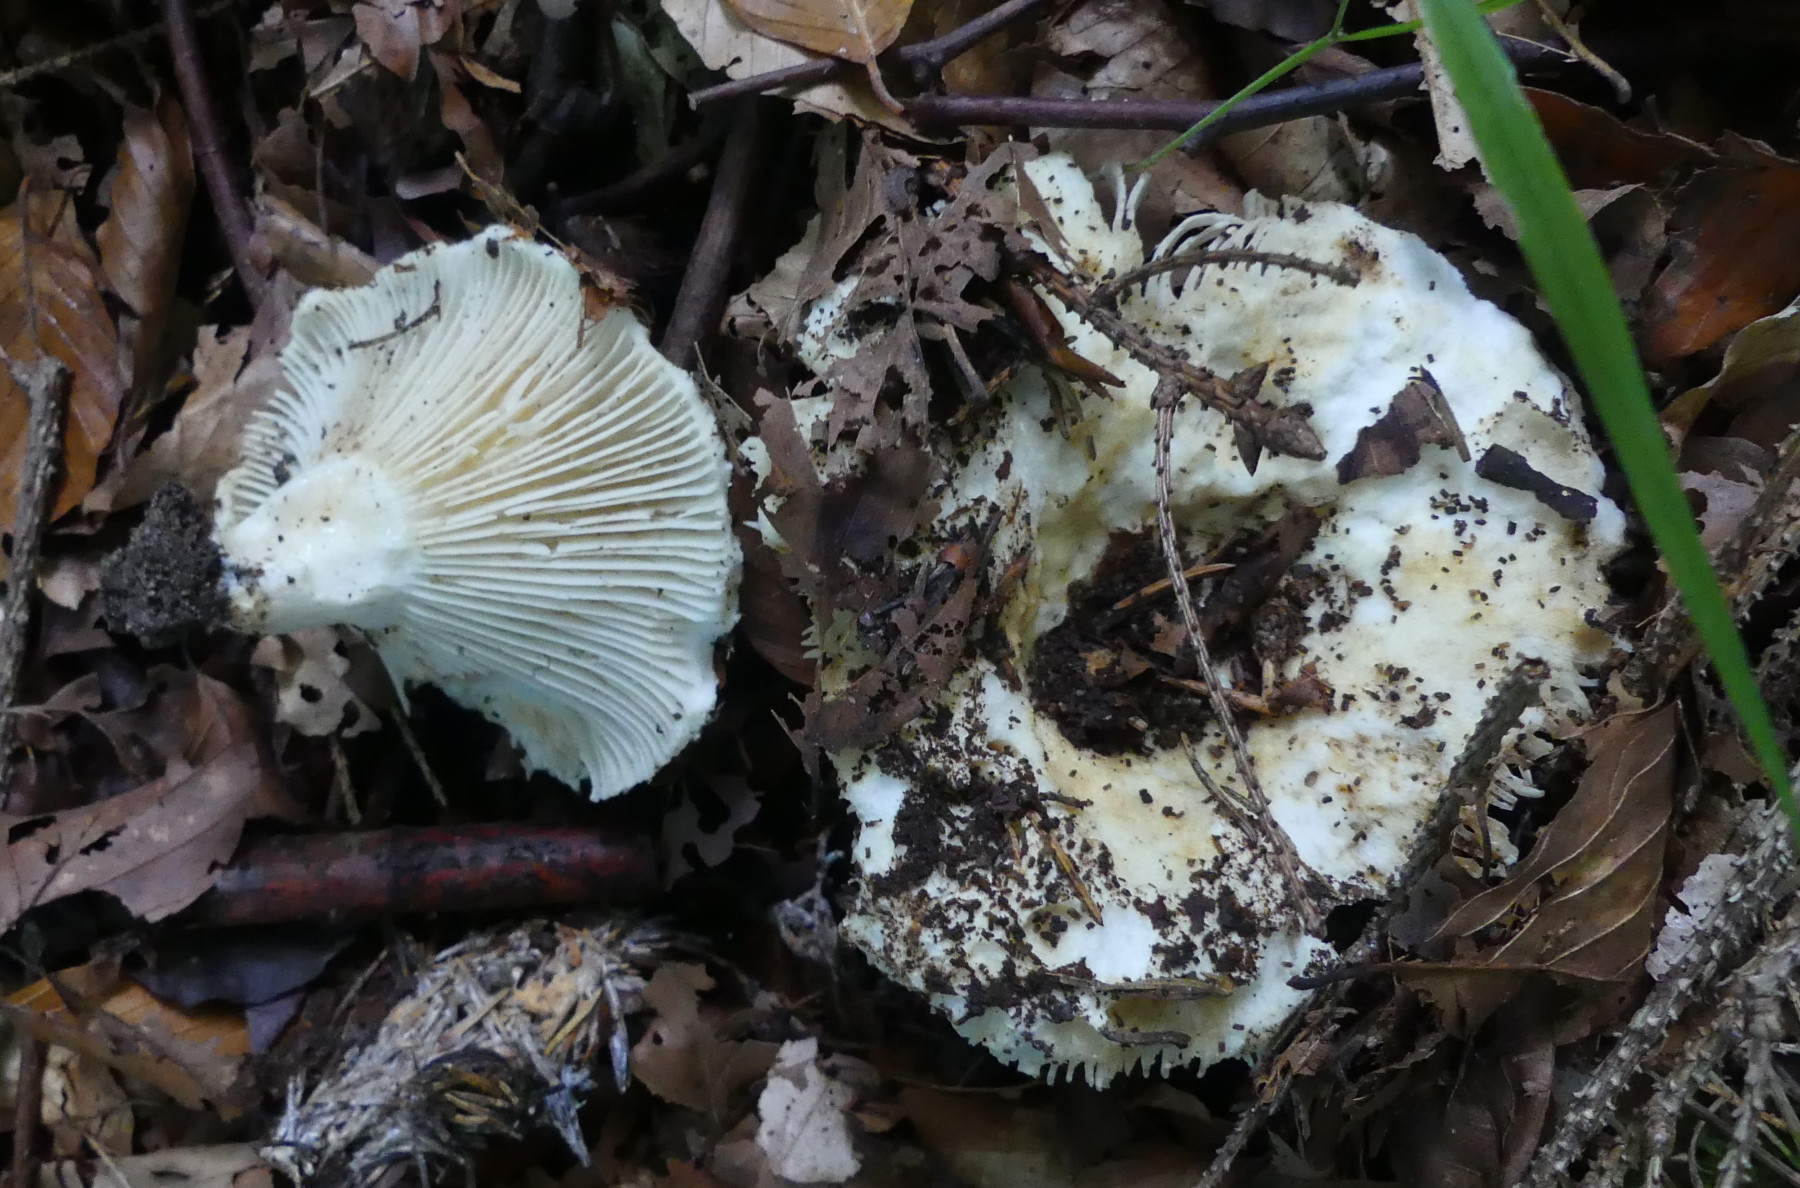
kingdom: Fungi
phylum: Basidiomycota
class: Agaricomycetes
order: Russulales
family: Russulaceae
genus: Russula
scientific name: Russula delica
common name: almindelig tragt-skørhat
